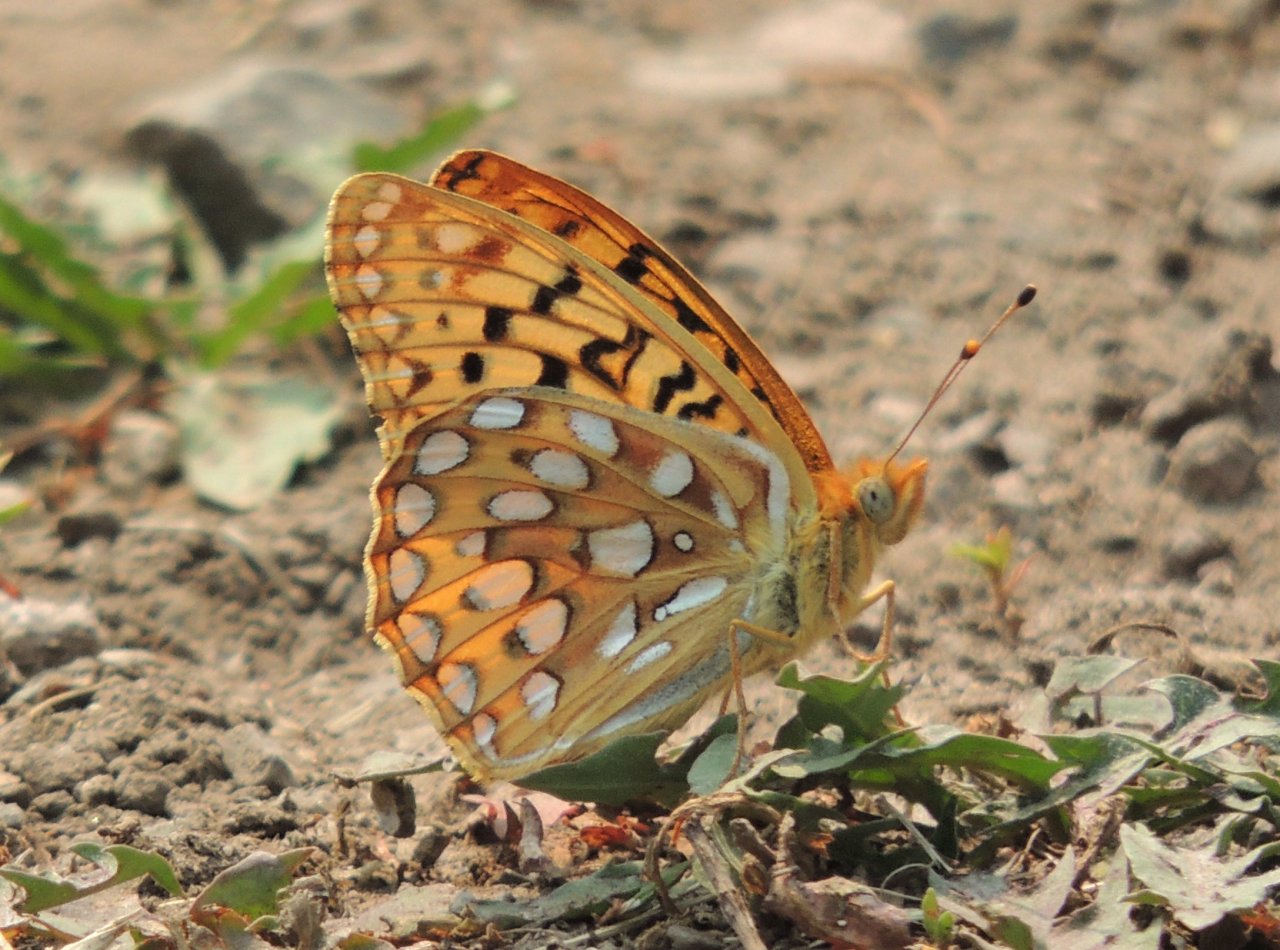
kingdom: Animalia
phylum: Arthropoda
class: Insecta
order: Lepidoptera
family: Nymphalidae
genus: Speyeria
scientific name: Speyeria zerene
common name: Zerene Fritillary
